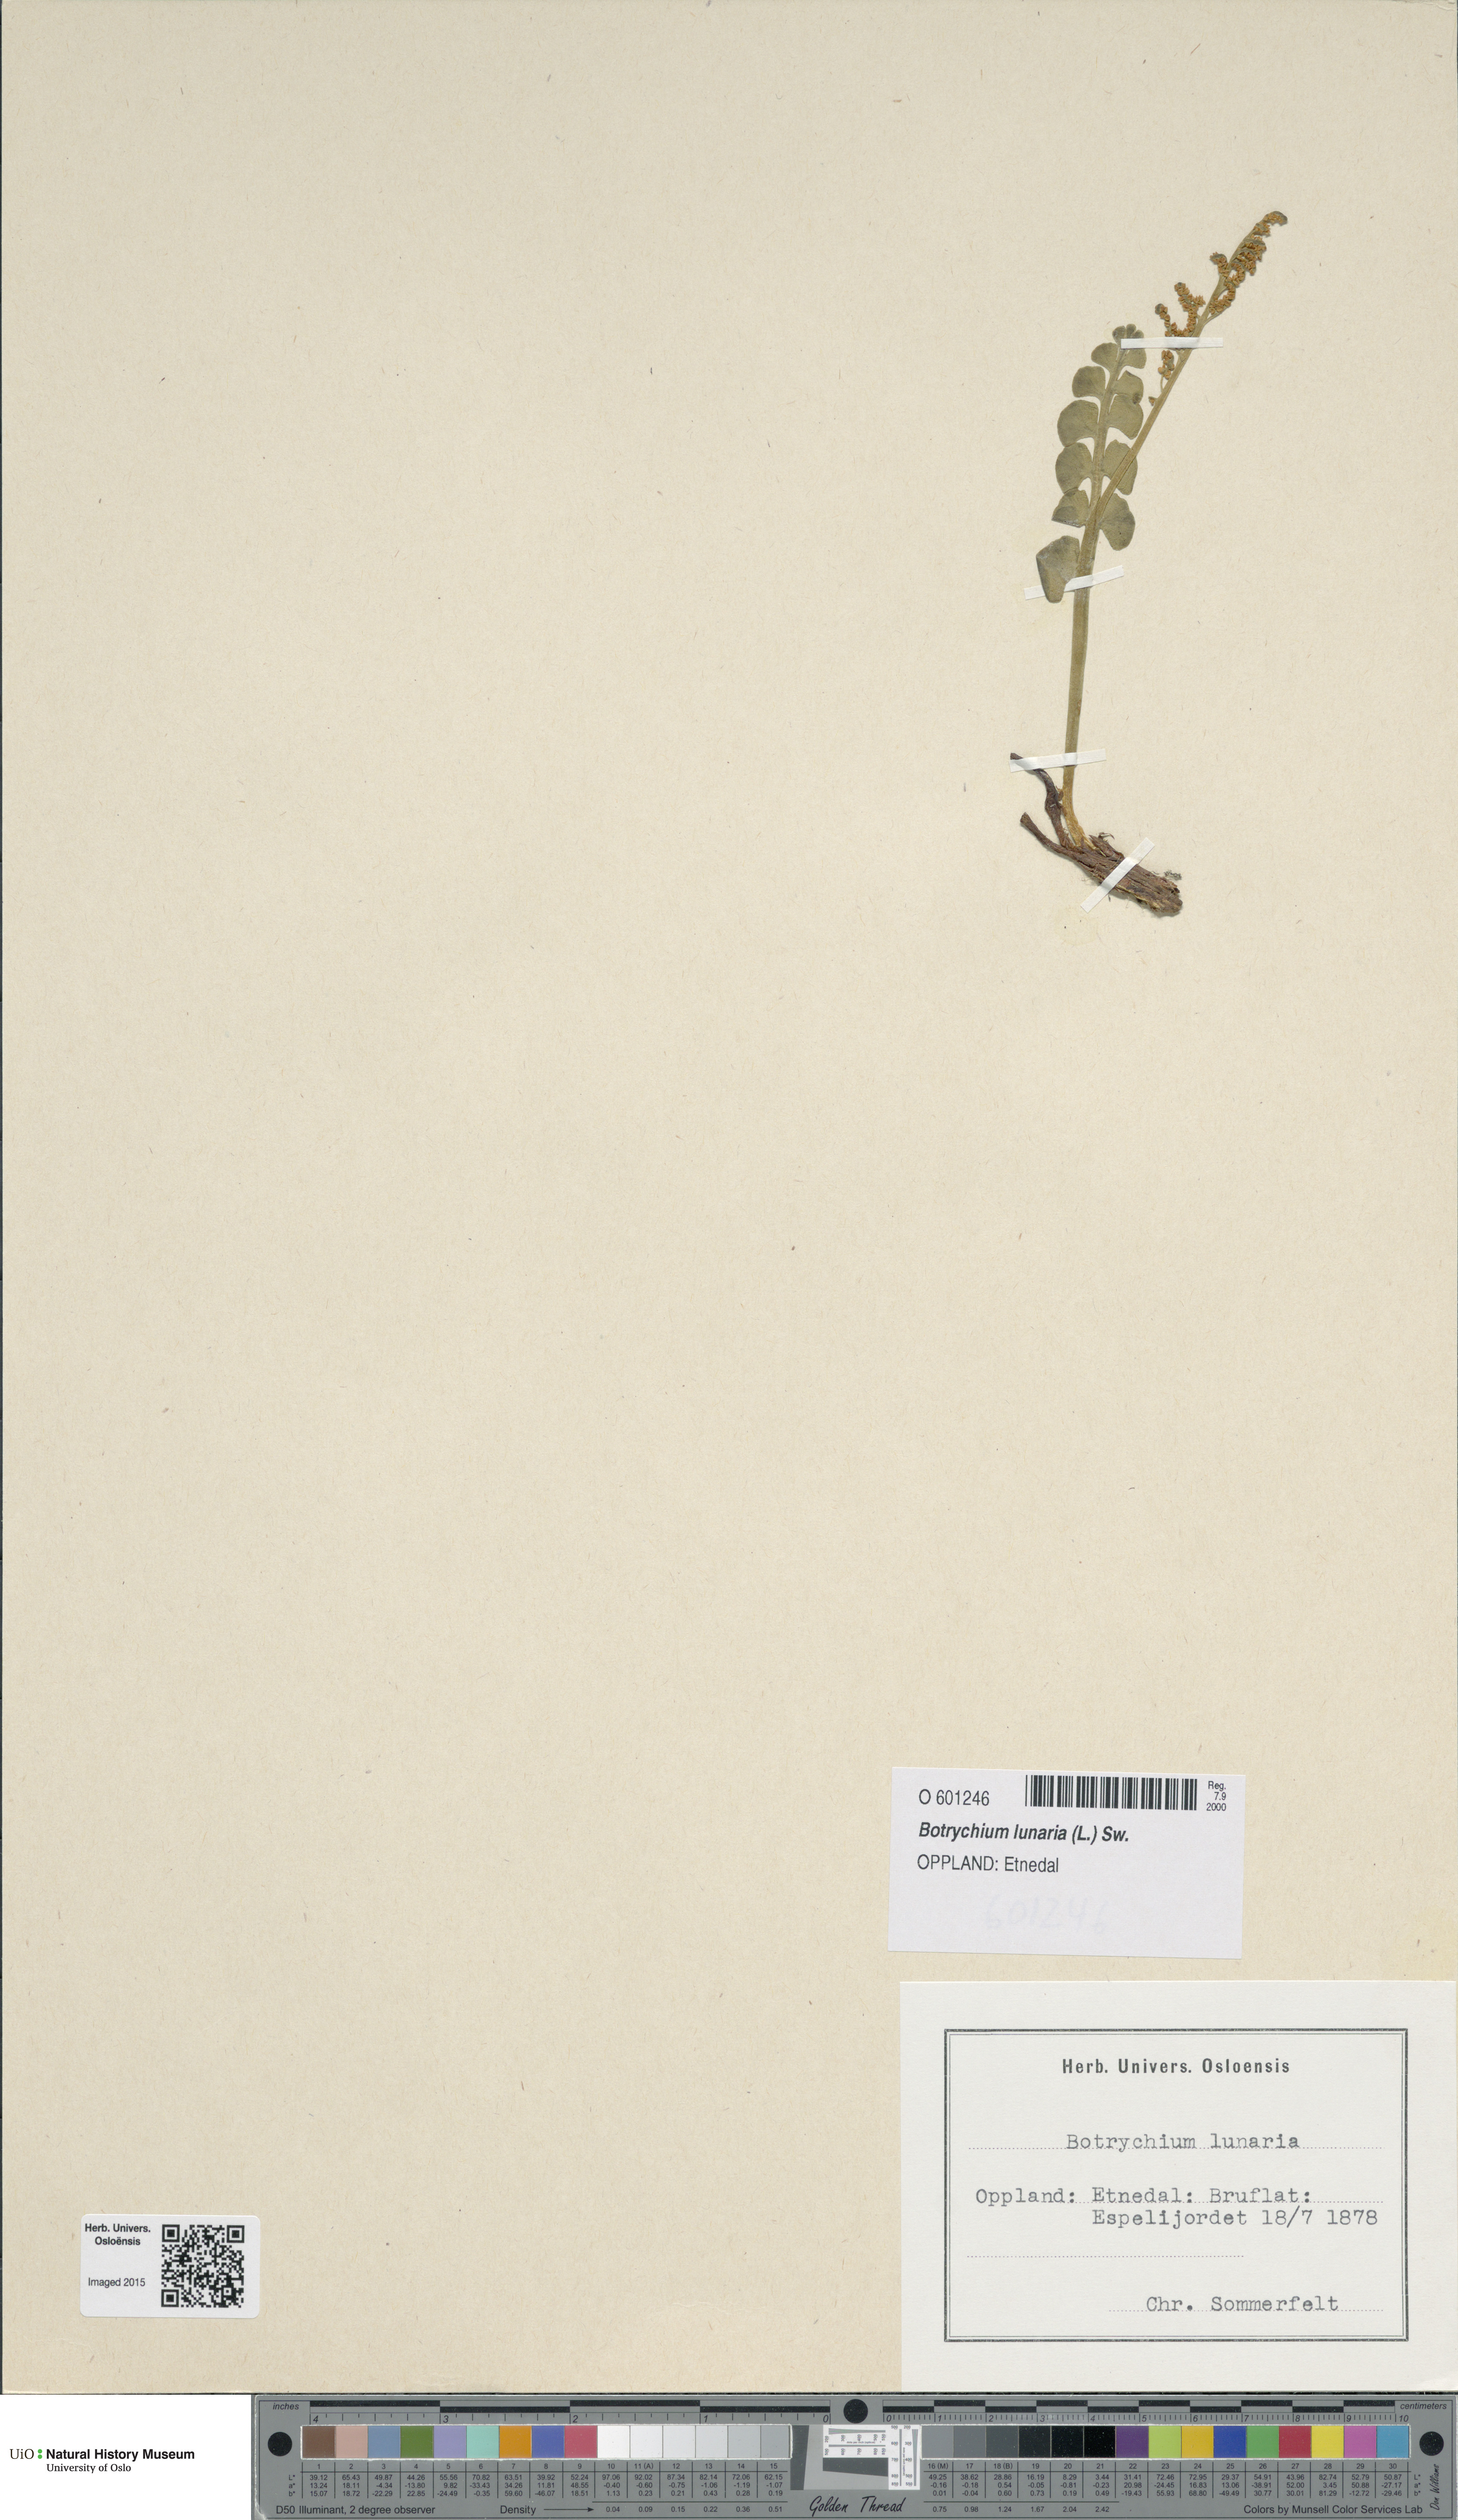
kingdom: Plantae
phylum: Tracheophyta
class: Polypodiopsida
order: Ophioglossales
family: Ophioglossaceae
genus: Botrychium
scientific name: Botrychium lunaria
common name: Moonwort
